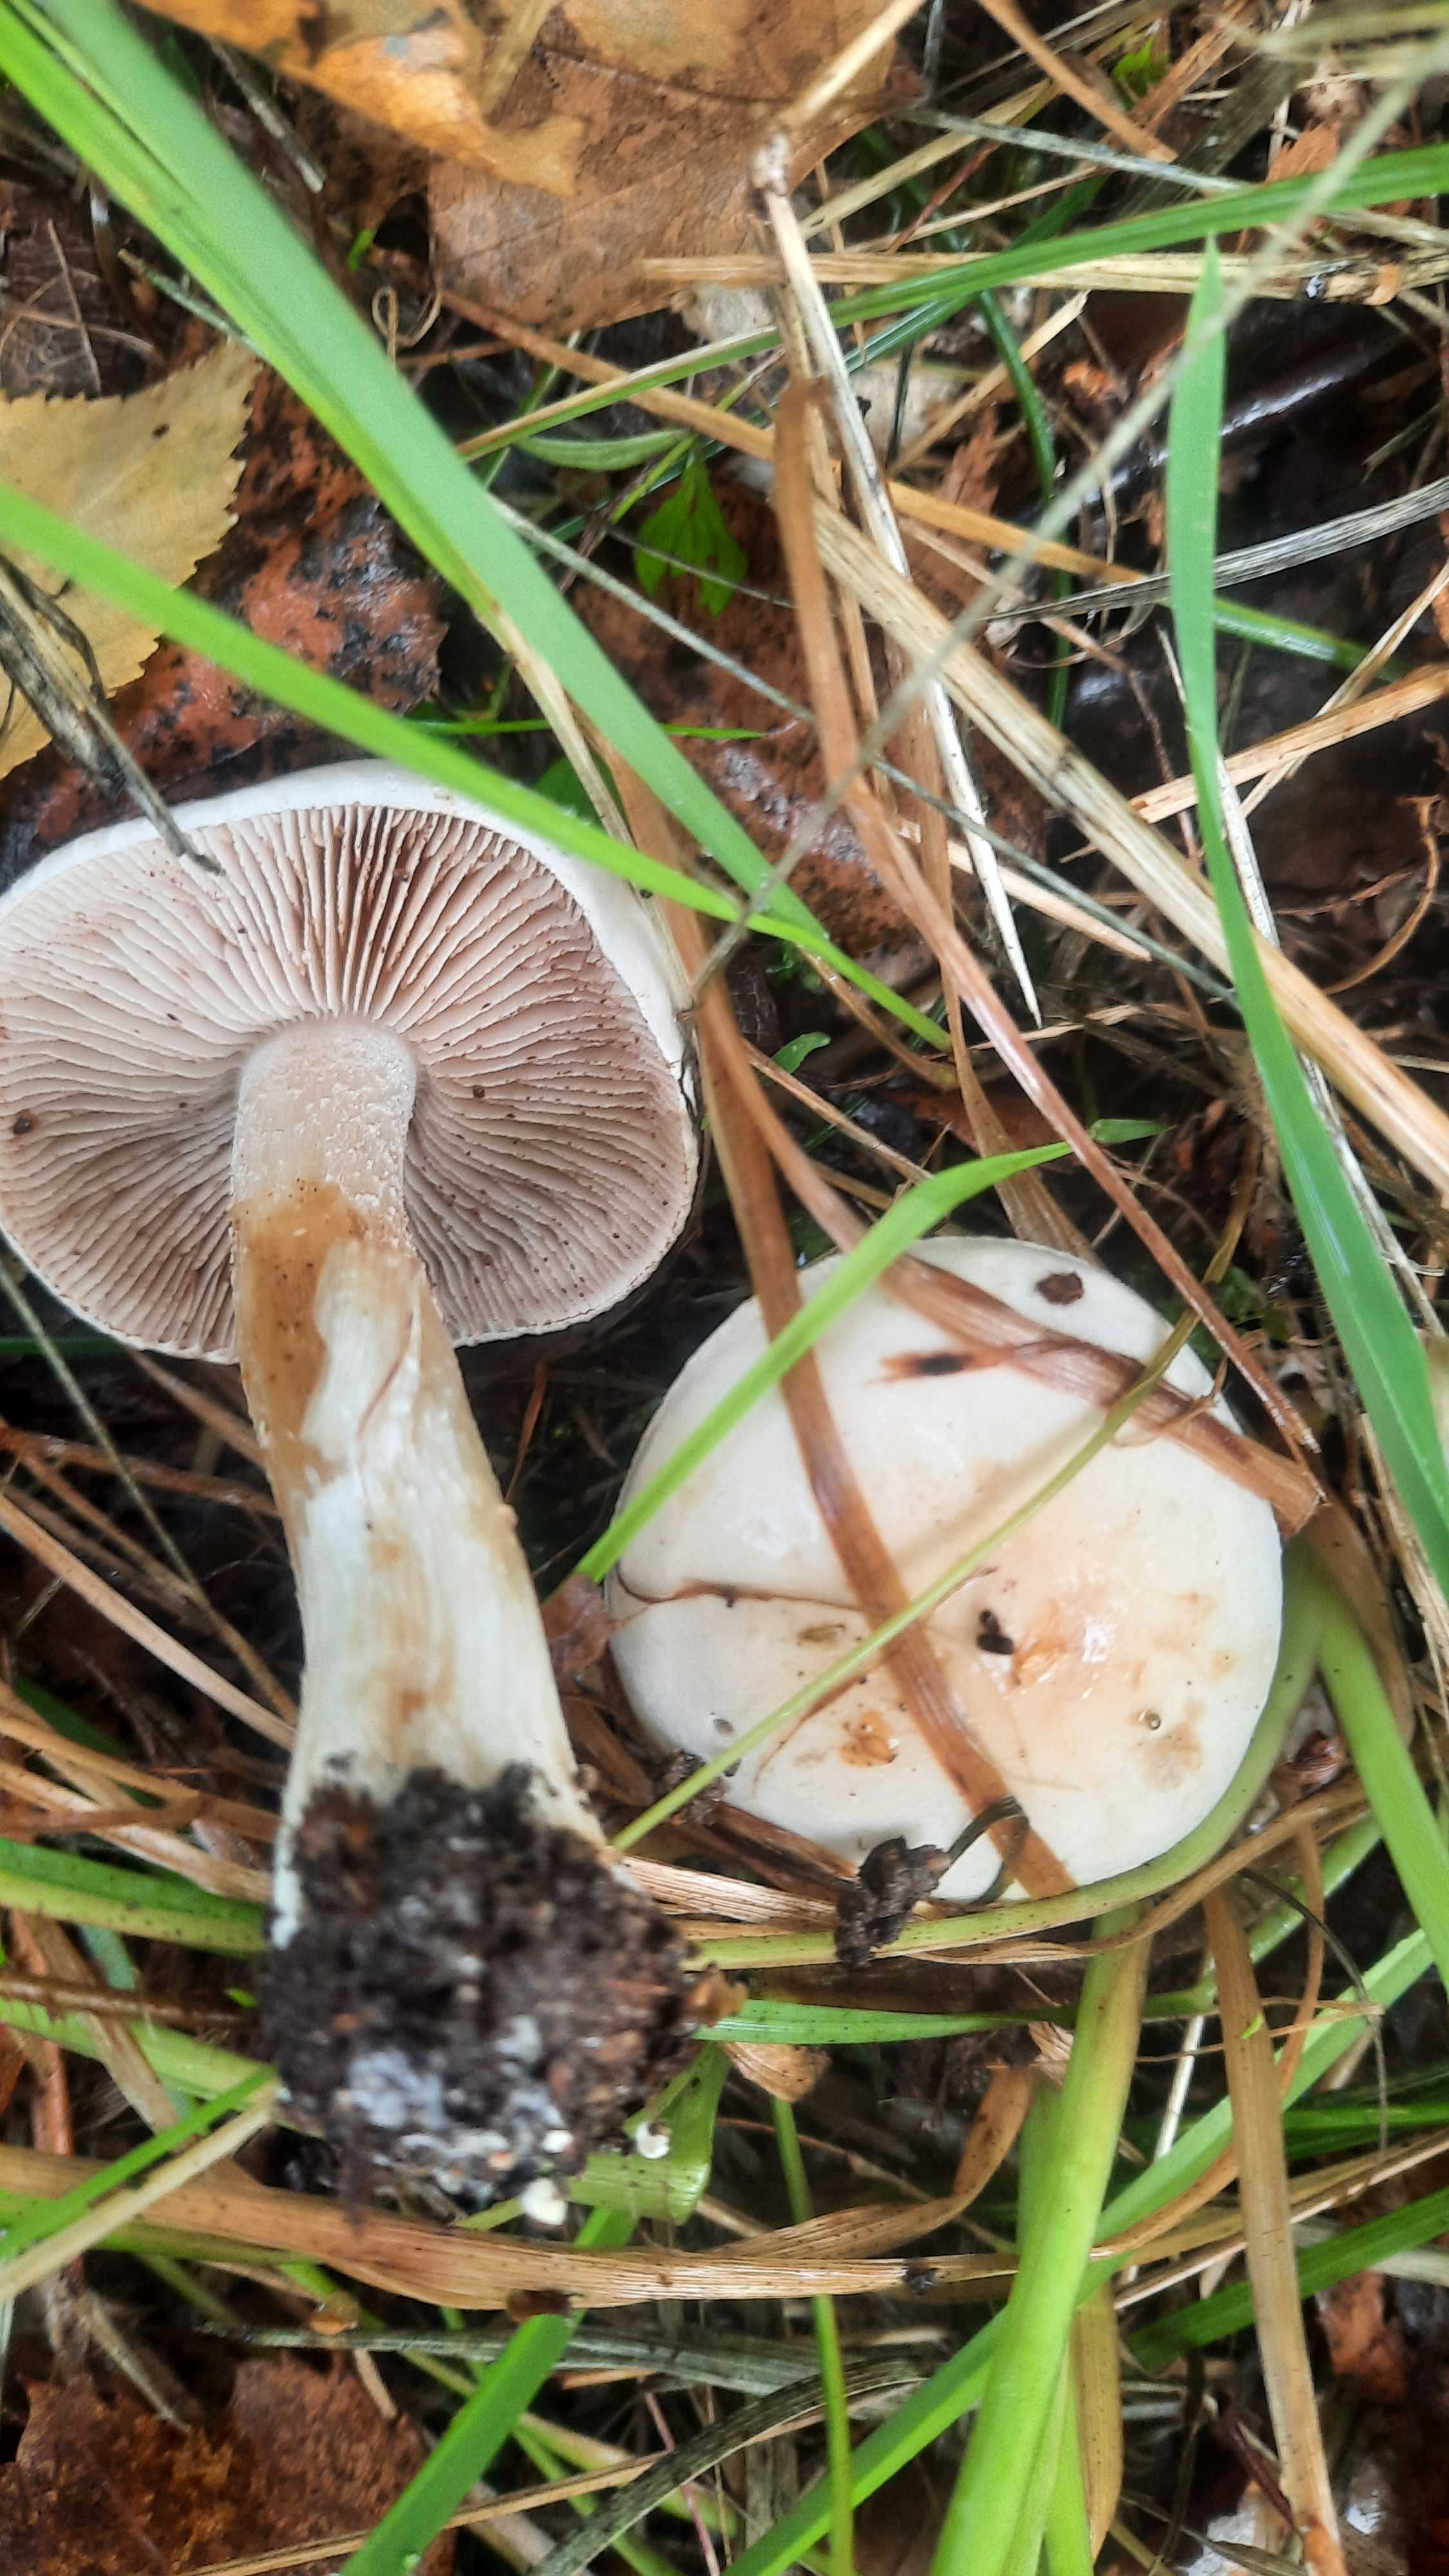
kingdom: Fungi
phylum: Basidiomycota
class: Agaricomycetes
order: Agaricales
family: Hymenogastraceae
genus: Hebeloma
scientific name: Hebeloma
